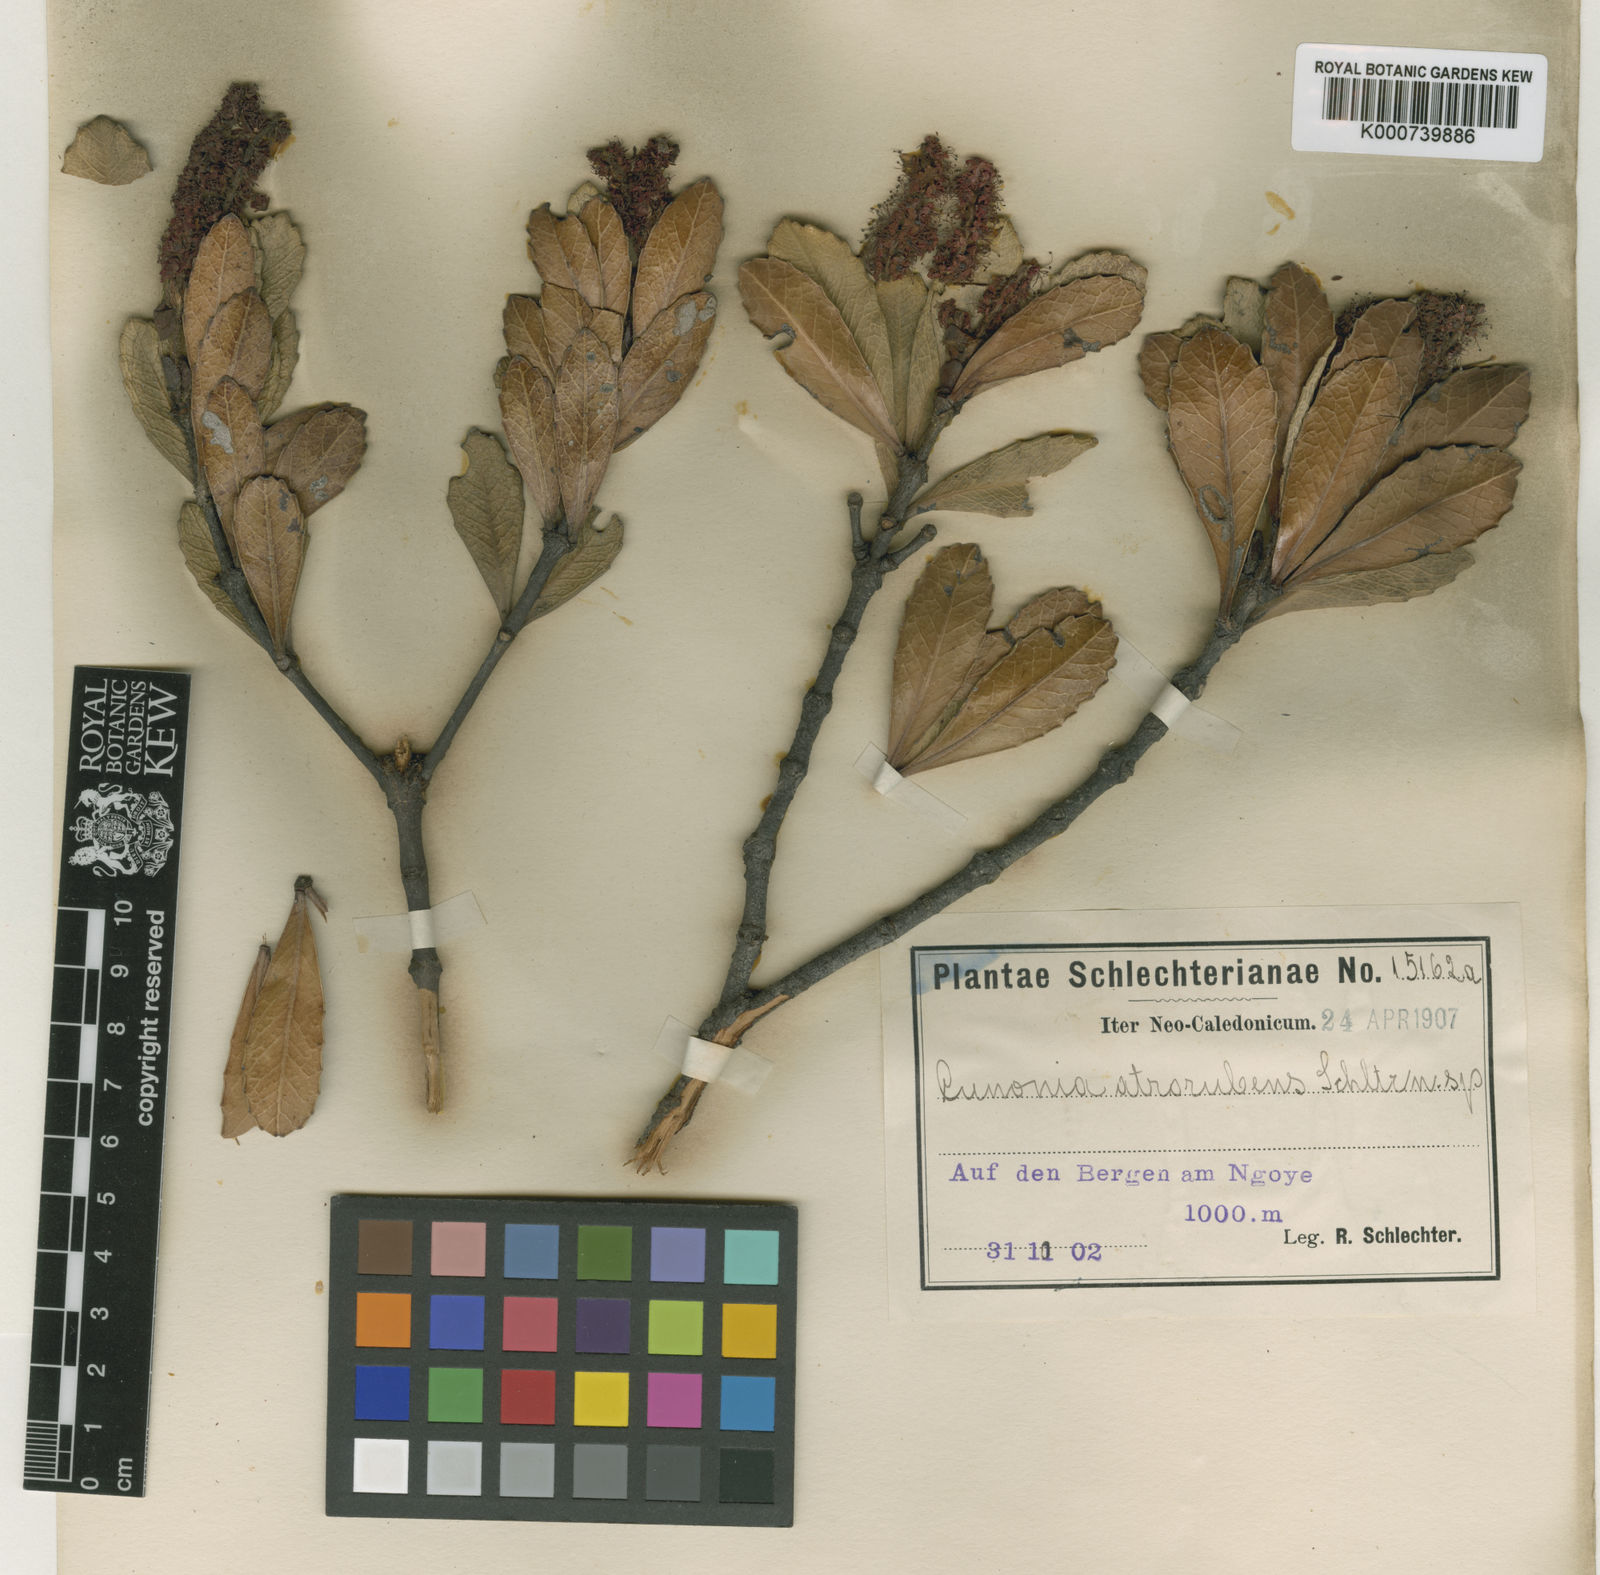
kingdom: Plantae
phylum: Tracheophyta
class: Magnoliopsida
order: Oxalidales
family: Cunoniaceae
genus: Cunonia
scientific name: Cunonia atrorubens
